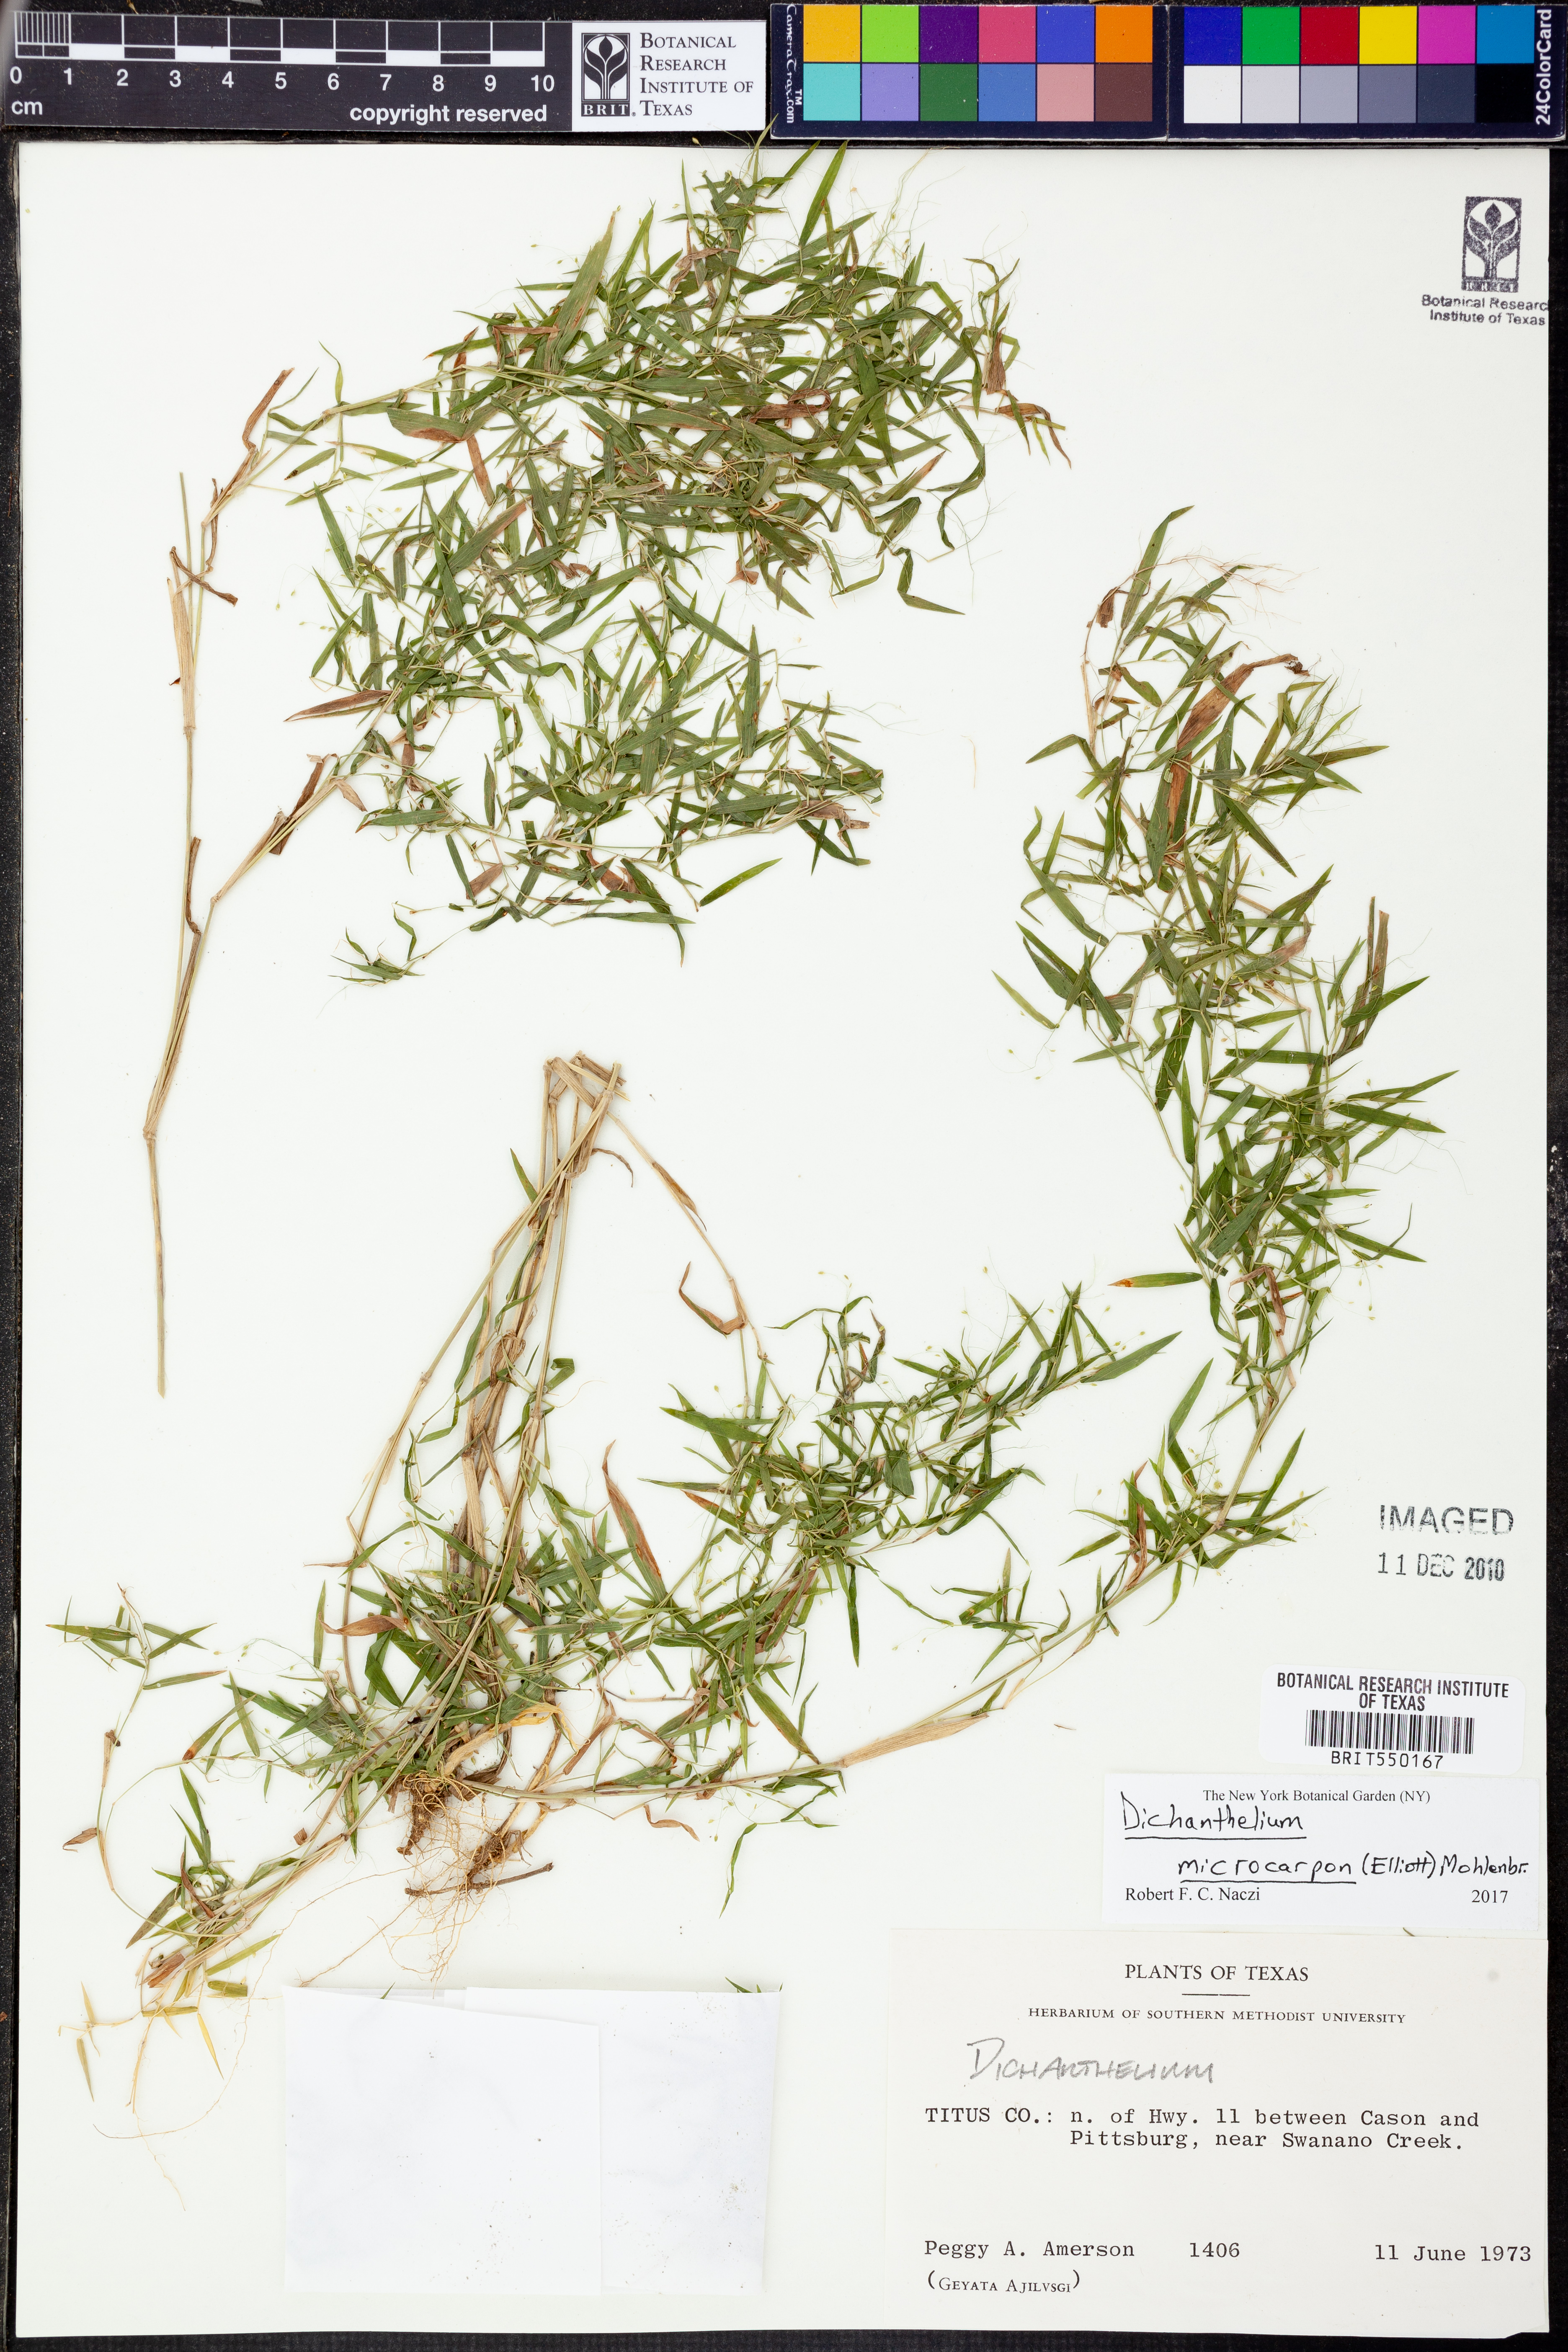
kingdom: Plantae
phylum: Tracheophyta
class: Liliopsida
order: Poales
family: Poaceae
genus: Dichanthelium
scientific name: Dichanthelium microcarpon
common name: Small-fruited witchgrass
